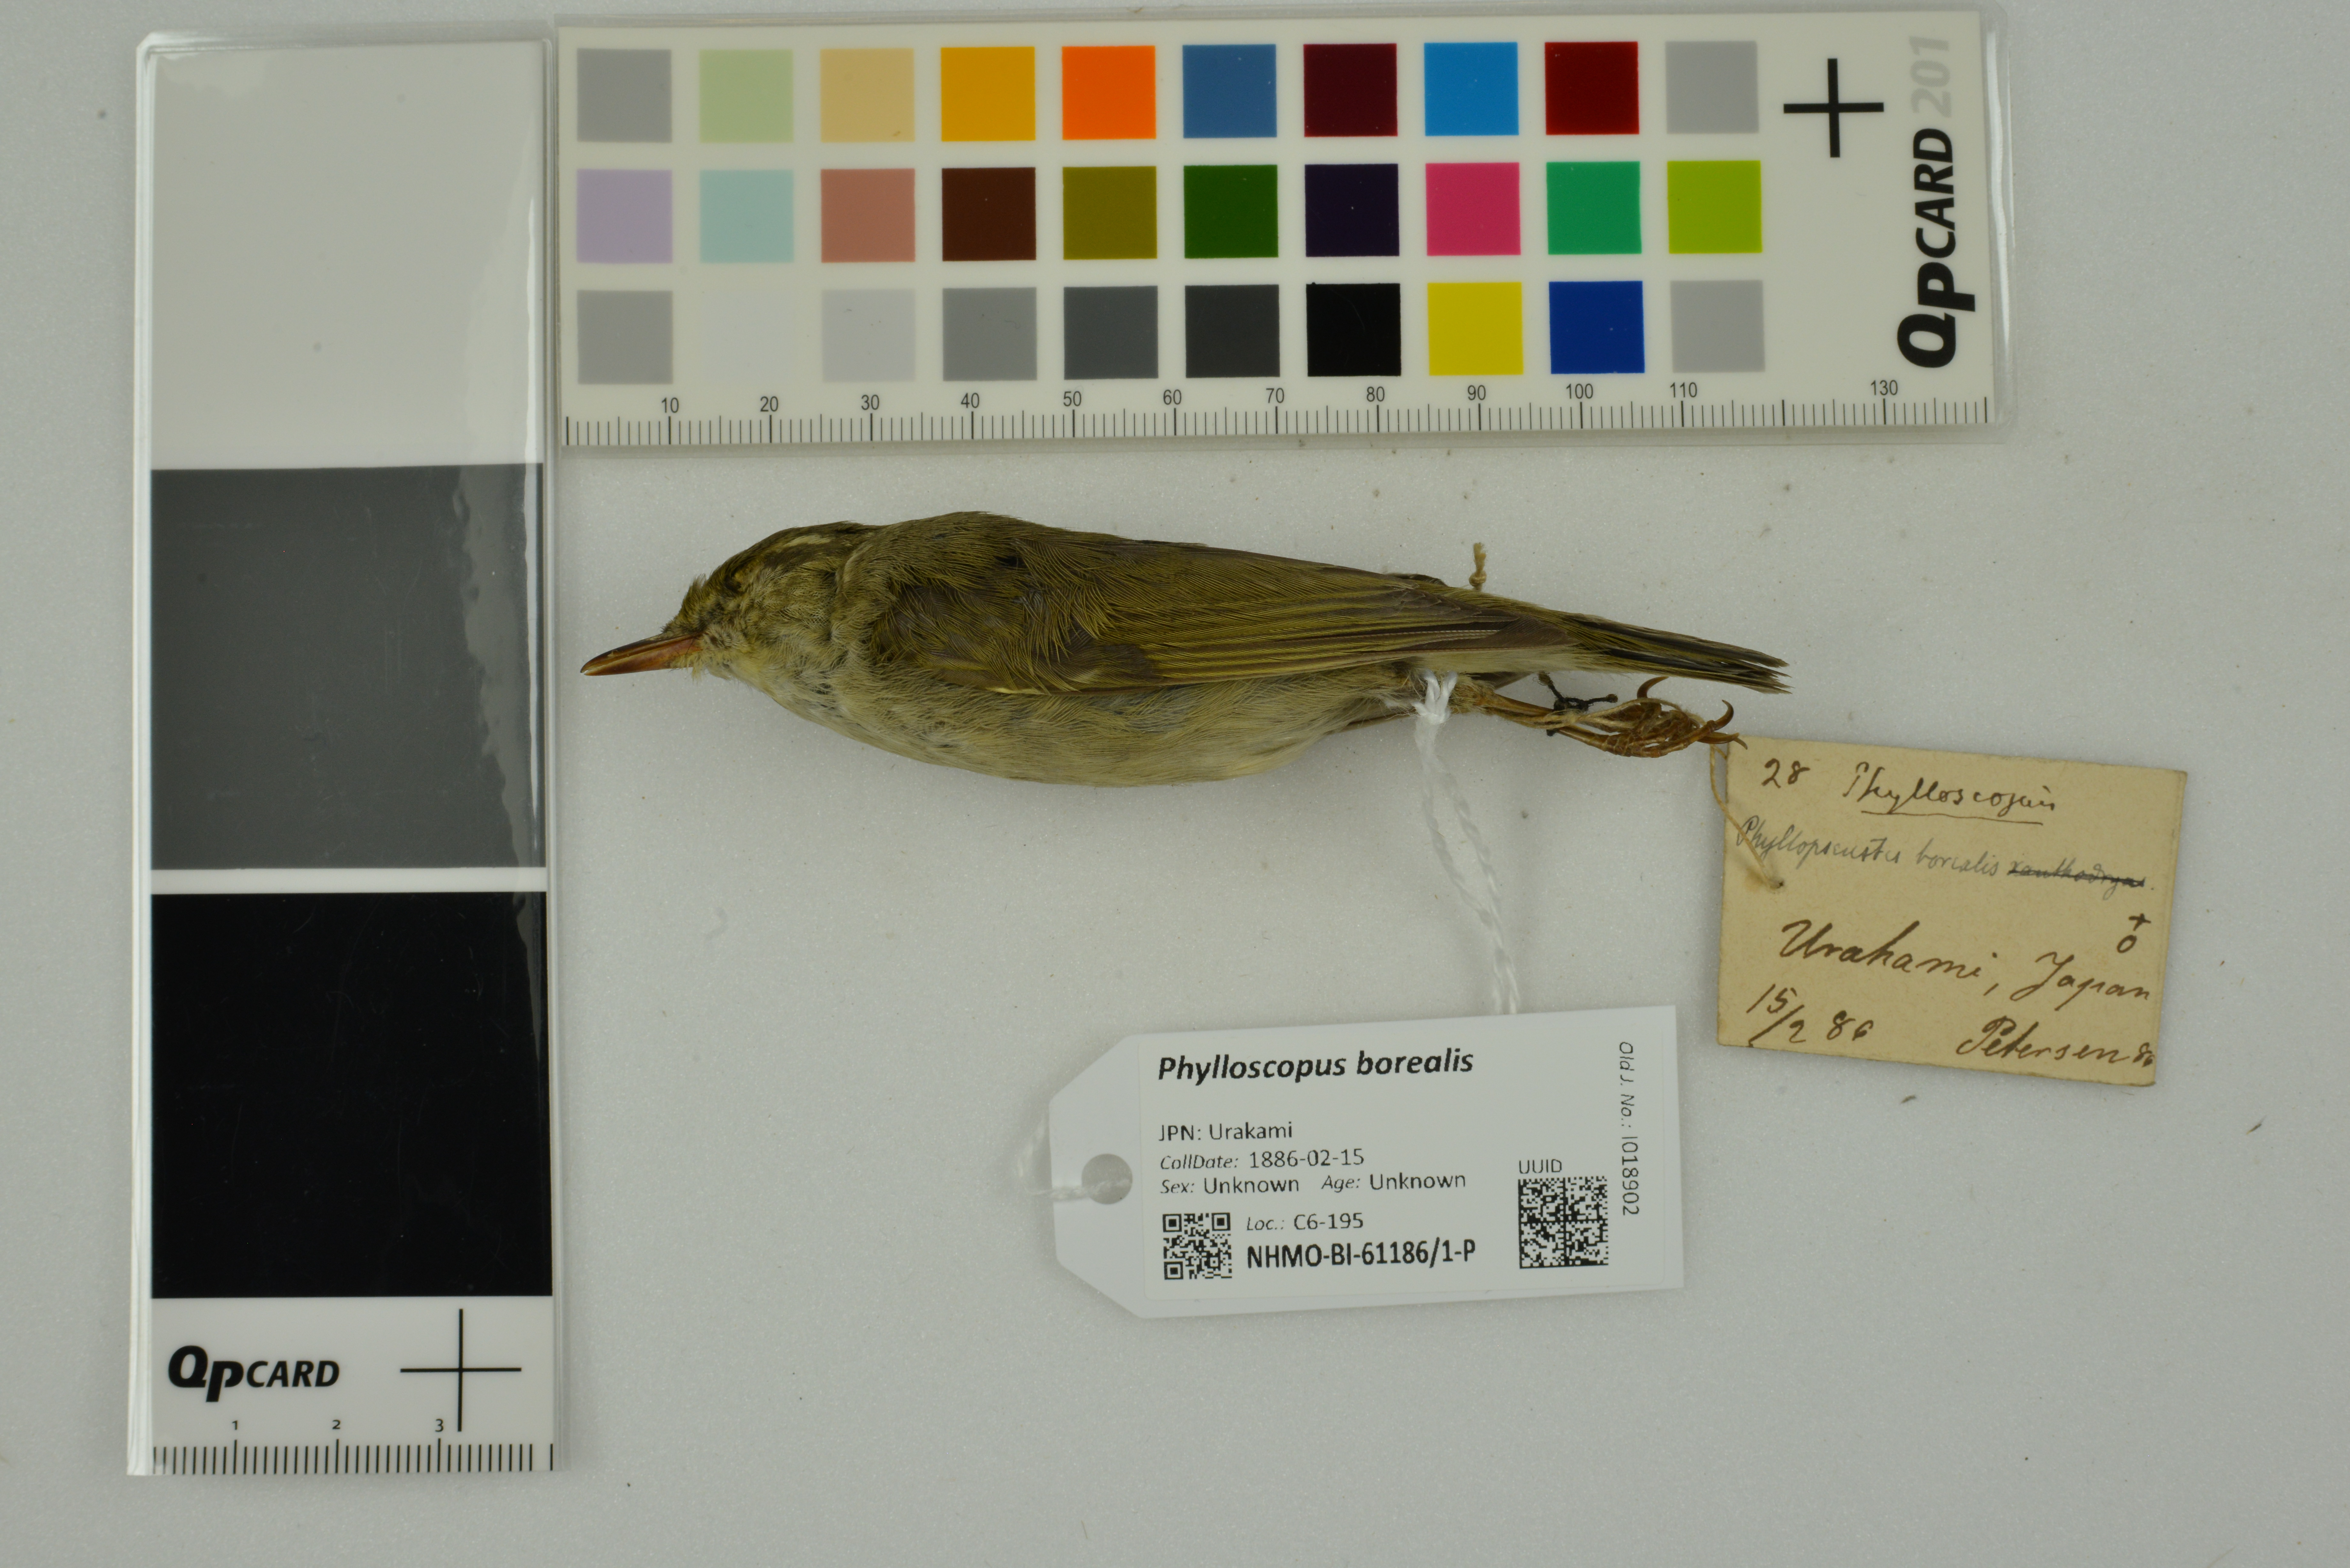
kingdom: Animalia
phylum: Chordata
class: Aves
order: Passeriformes
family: Phylloscopidae
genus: Phylloscopus
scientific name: Phylloscopus borealis
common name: Arctic warbler
